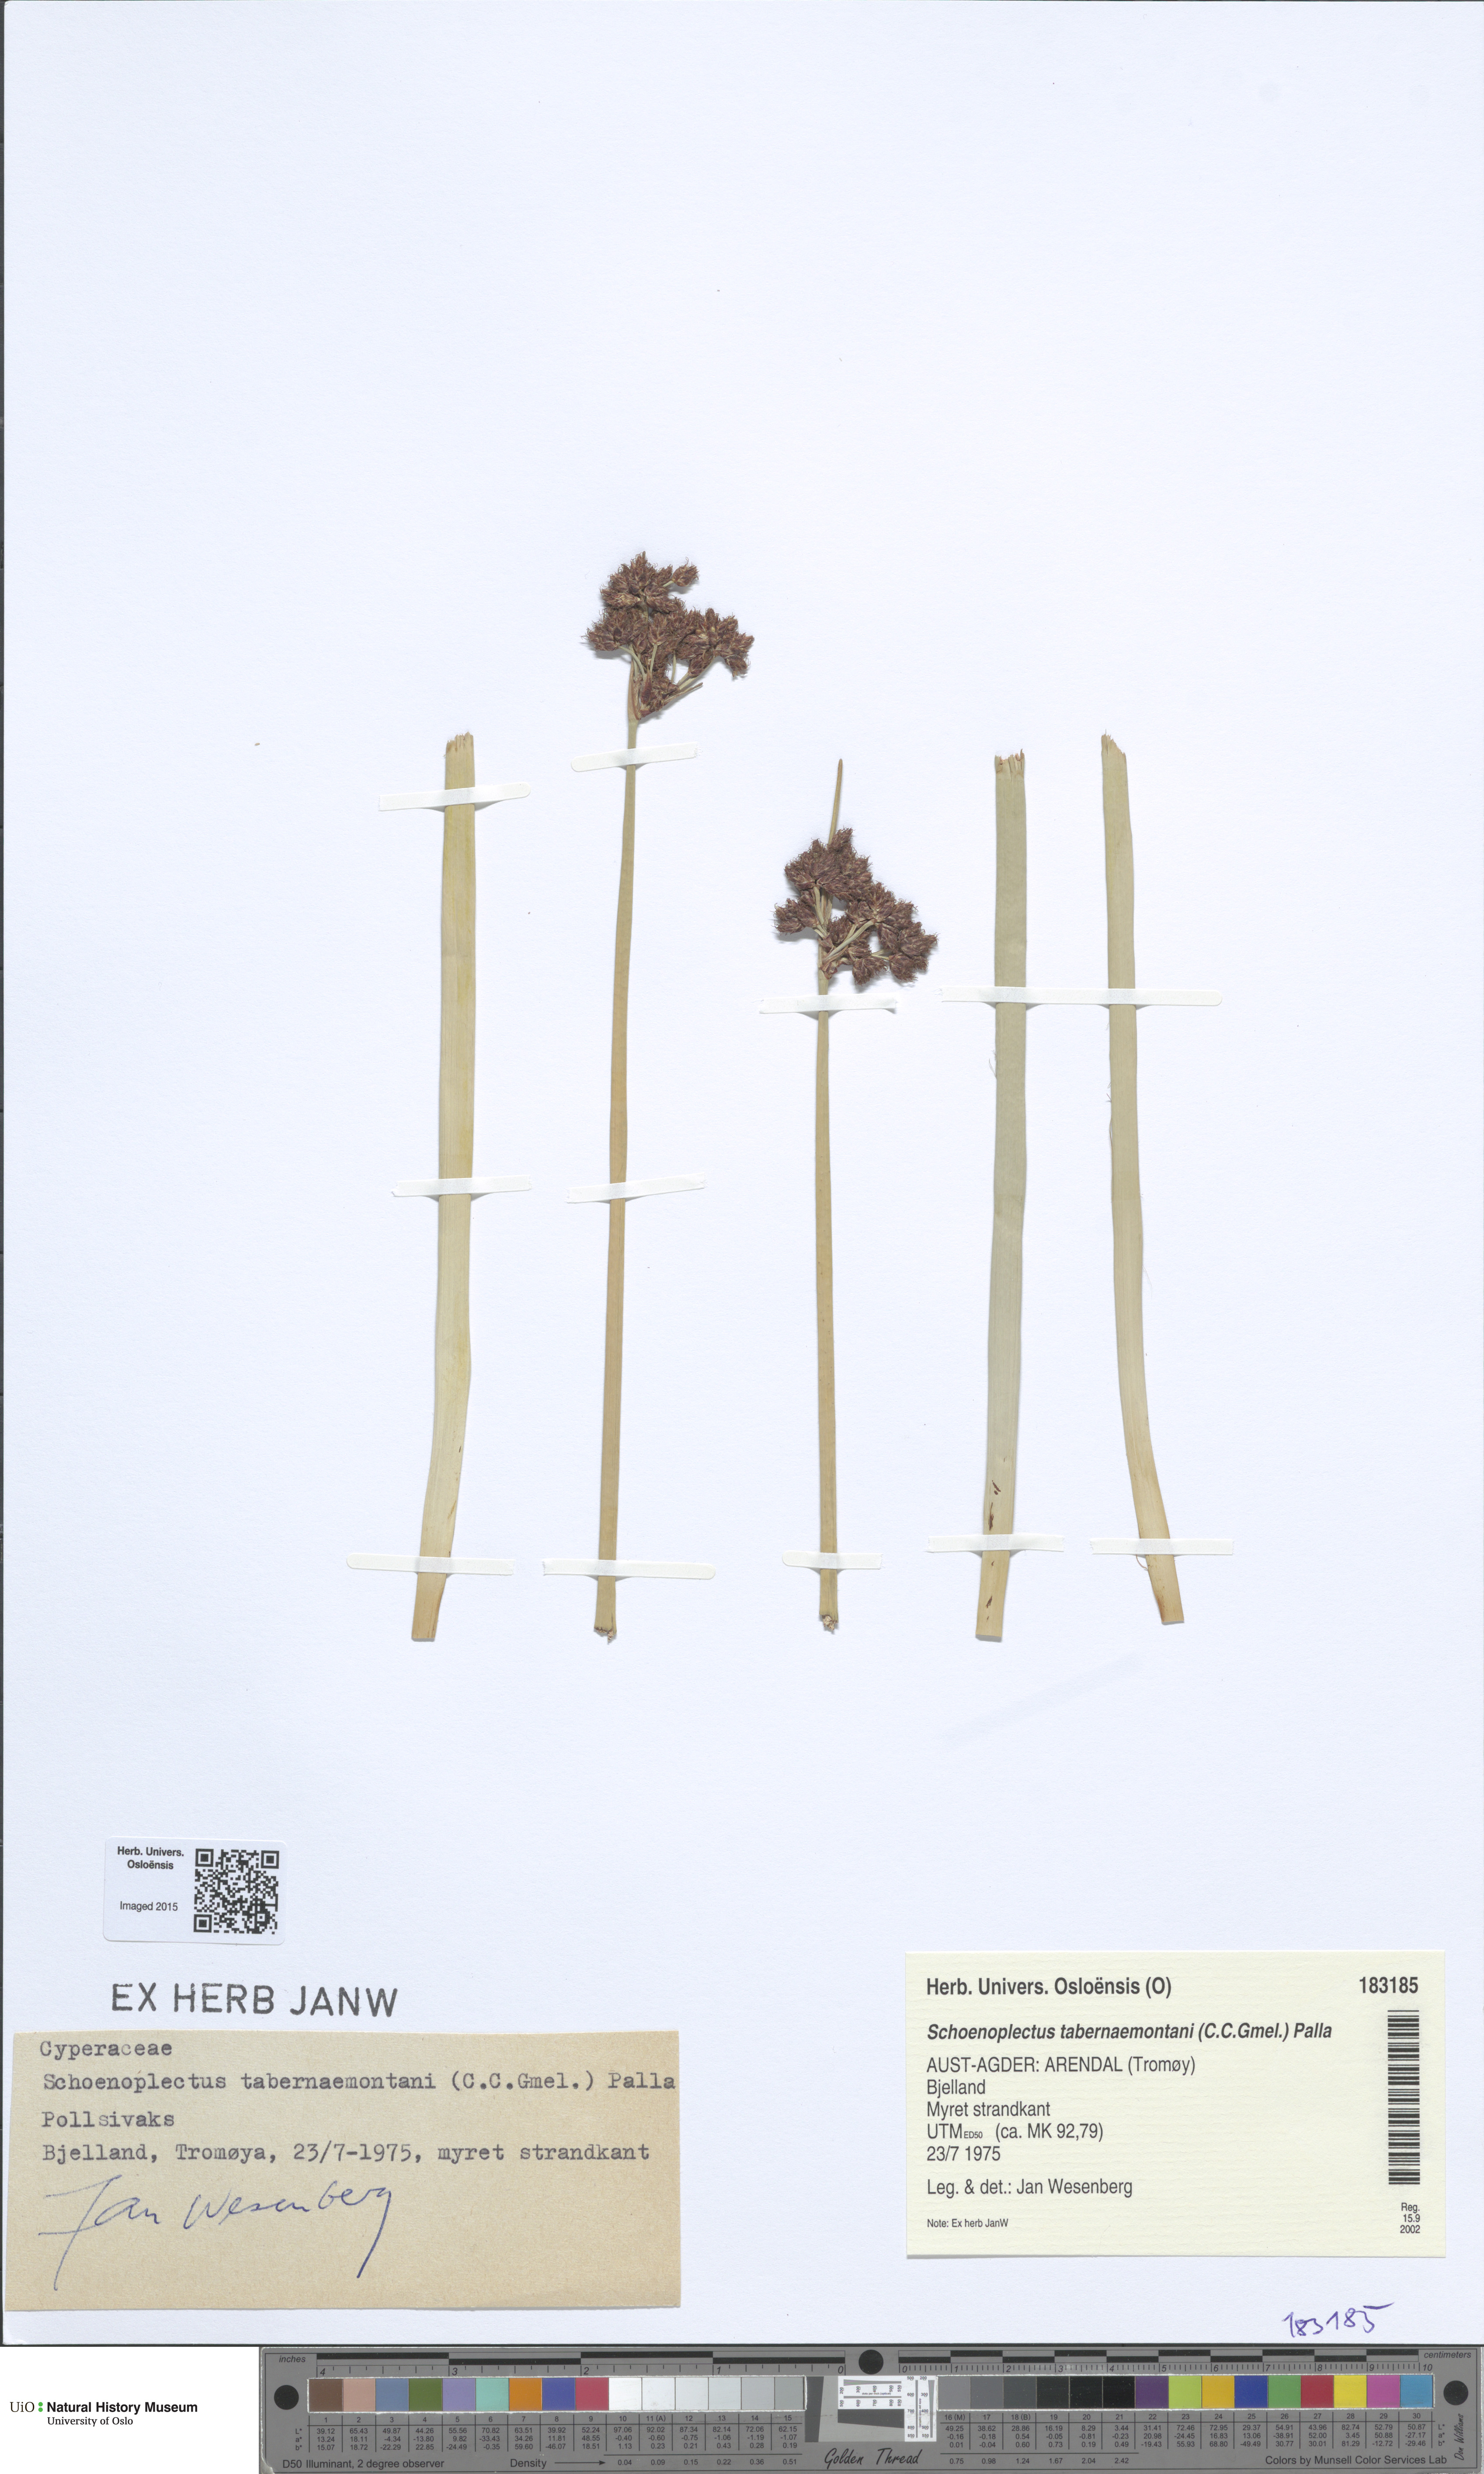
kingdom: Plantae
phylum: Tracheophyta
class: Liliopsida
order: Poales
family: Cyperaceae
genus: Schoenoplectus
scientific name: Schoenoplectus tabernaemontani
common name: Grey club-rush
